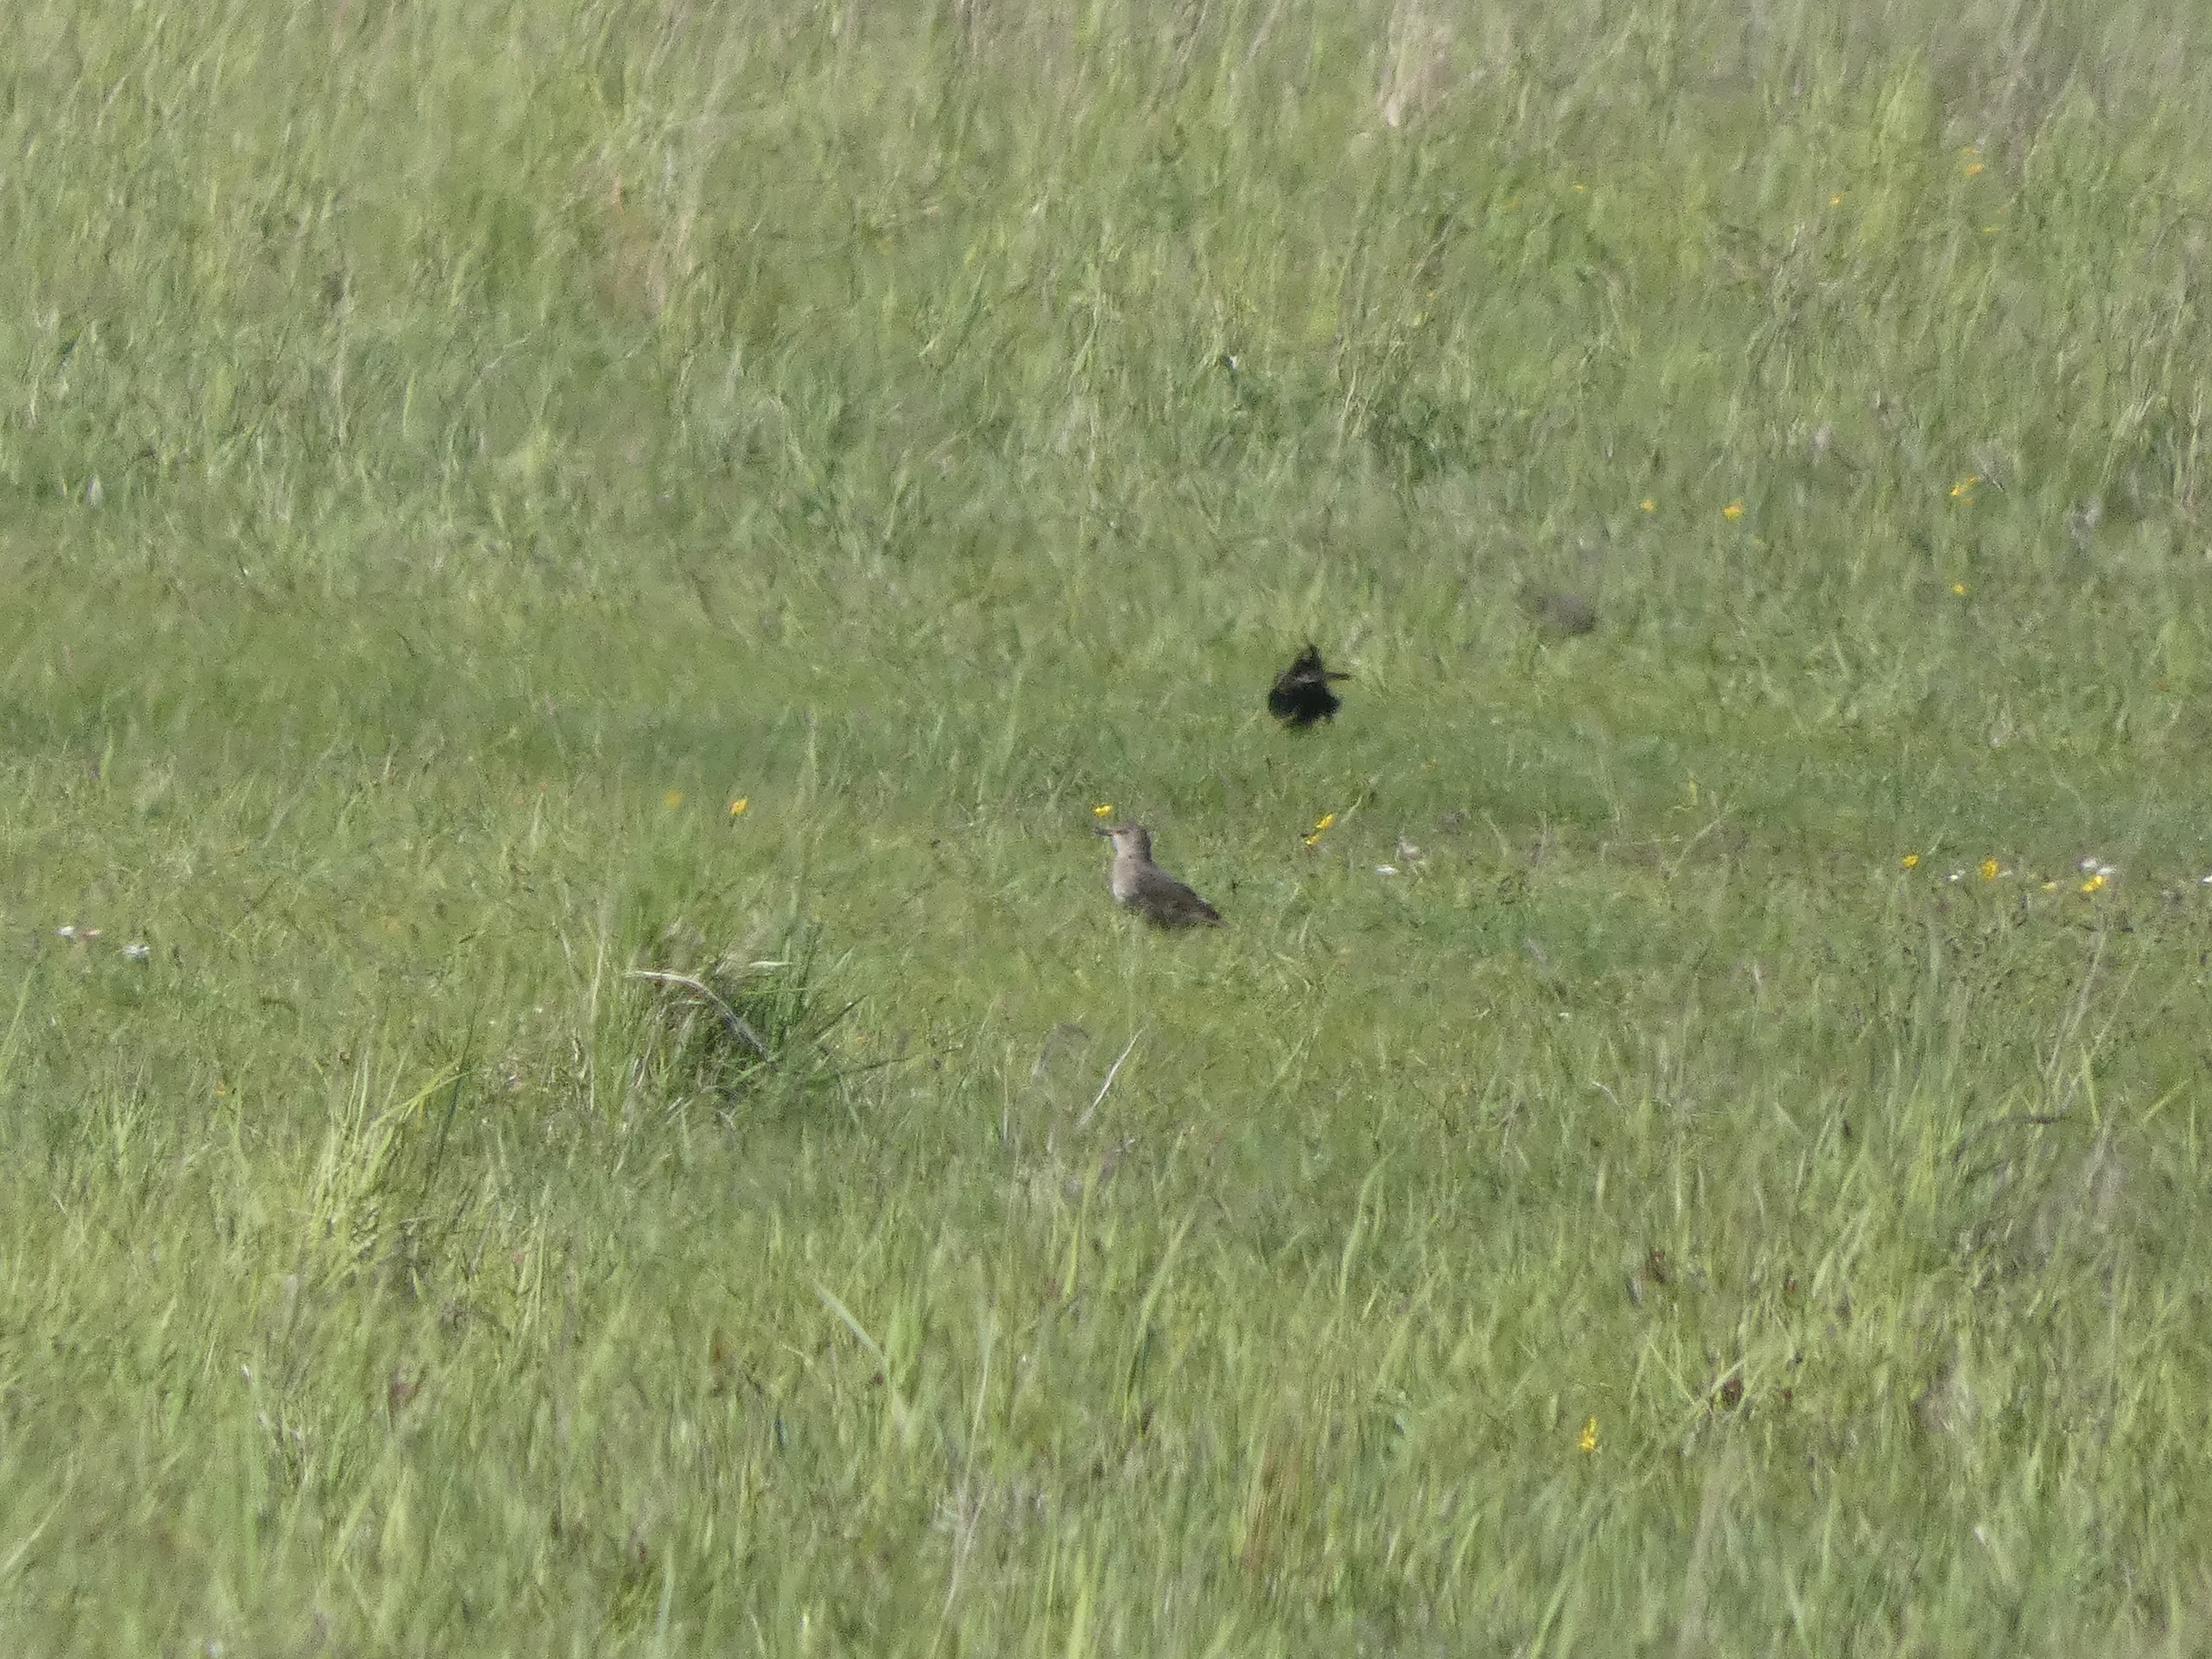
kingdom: Animalia
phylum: Chordata
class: Aves
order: Passeriformes
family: Sturnidae
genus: Sturnus
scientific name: Sturnus vulgaris
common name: Stær
